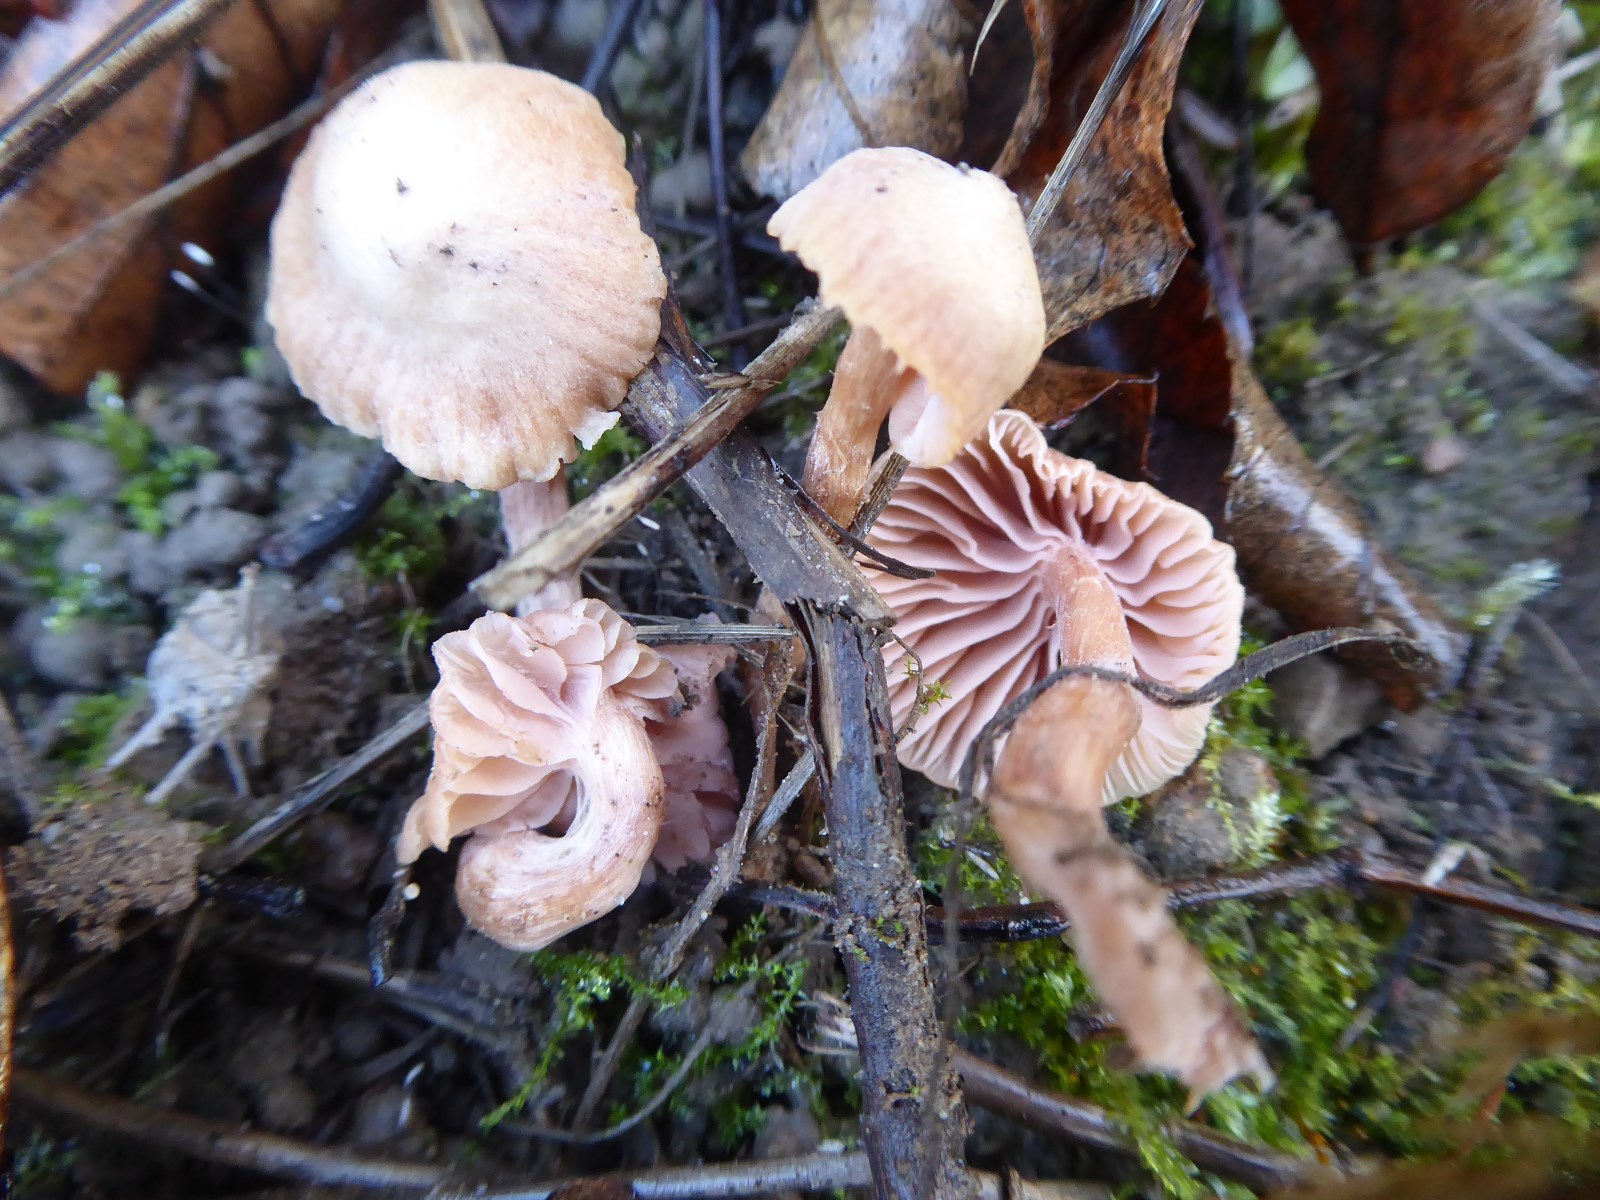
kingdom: Fungi
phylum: Basidiomycota
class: Agaricomycetes
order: Agaricales
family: Hydnangiaceae
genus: Laccaria
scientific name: Laccaria laccata
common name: rød ametysthat
